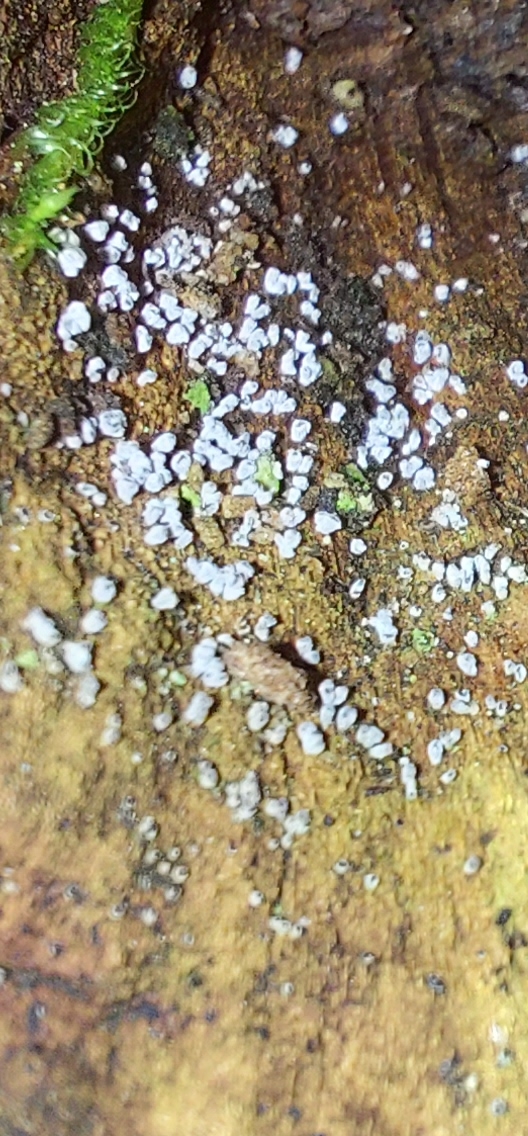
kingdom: Fungi
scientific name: Fungi
